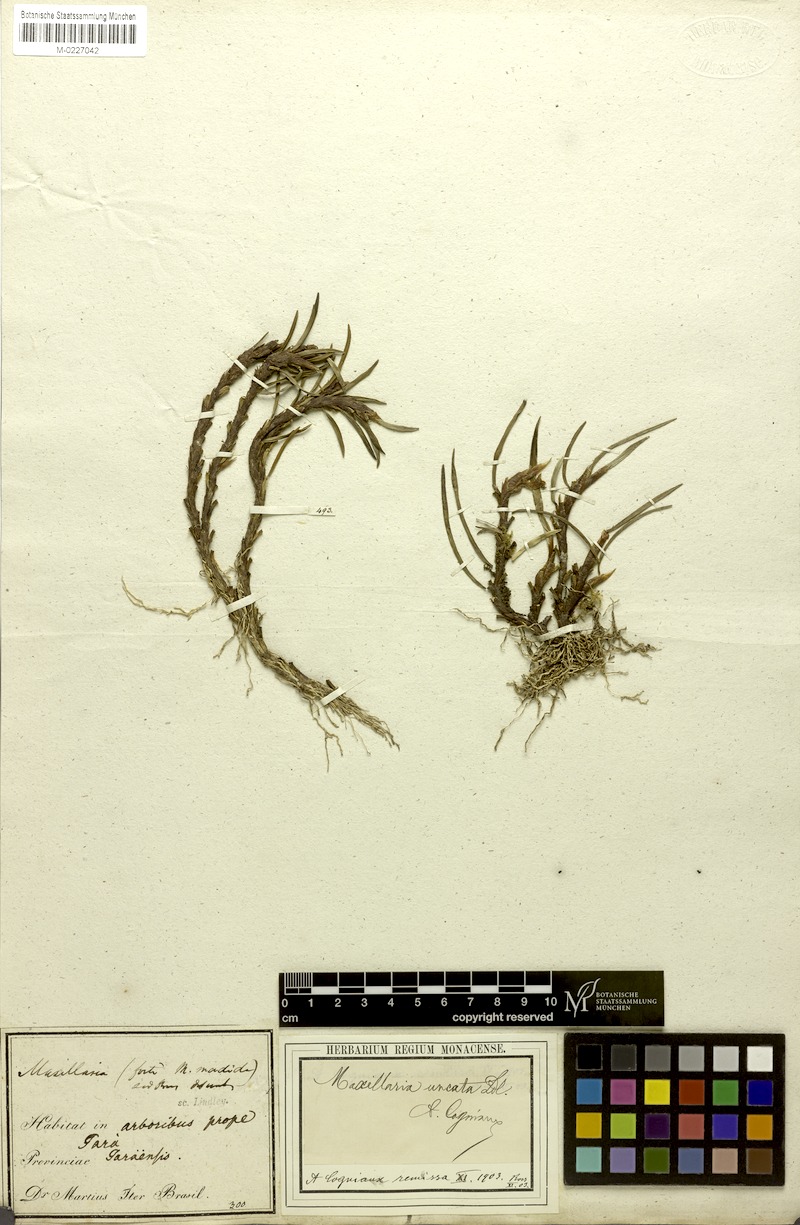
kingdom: Plantae
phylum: Tracheophyta
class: Liliopsida
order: Asparagales
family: Orchidaceae
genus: Maxillaria
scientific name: Maxillaria uncata
